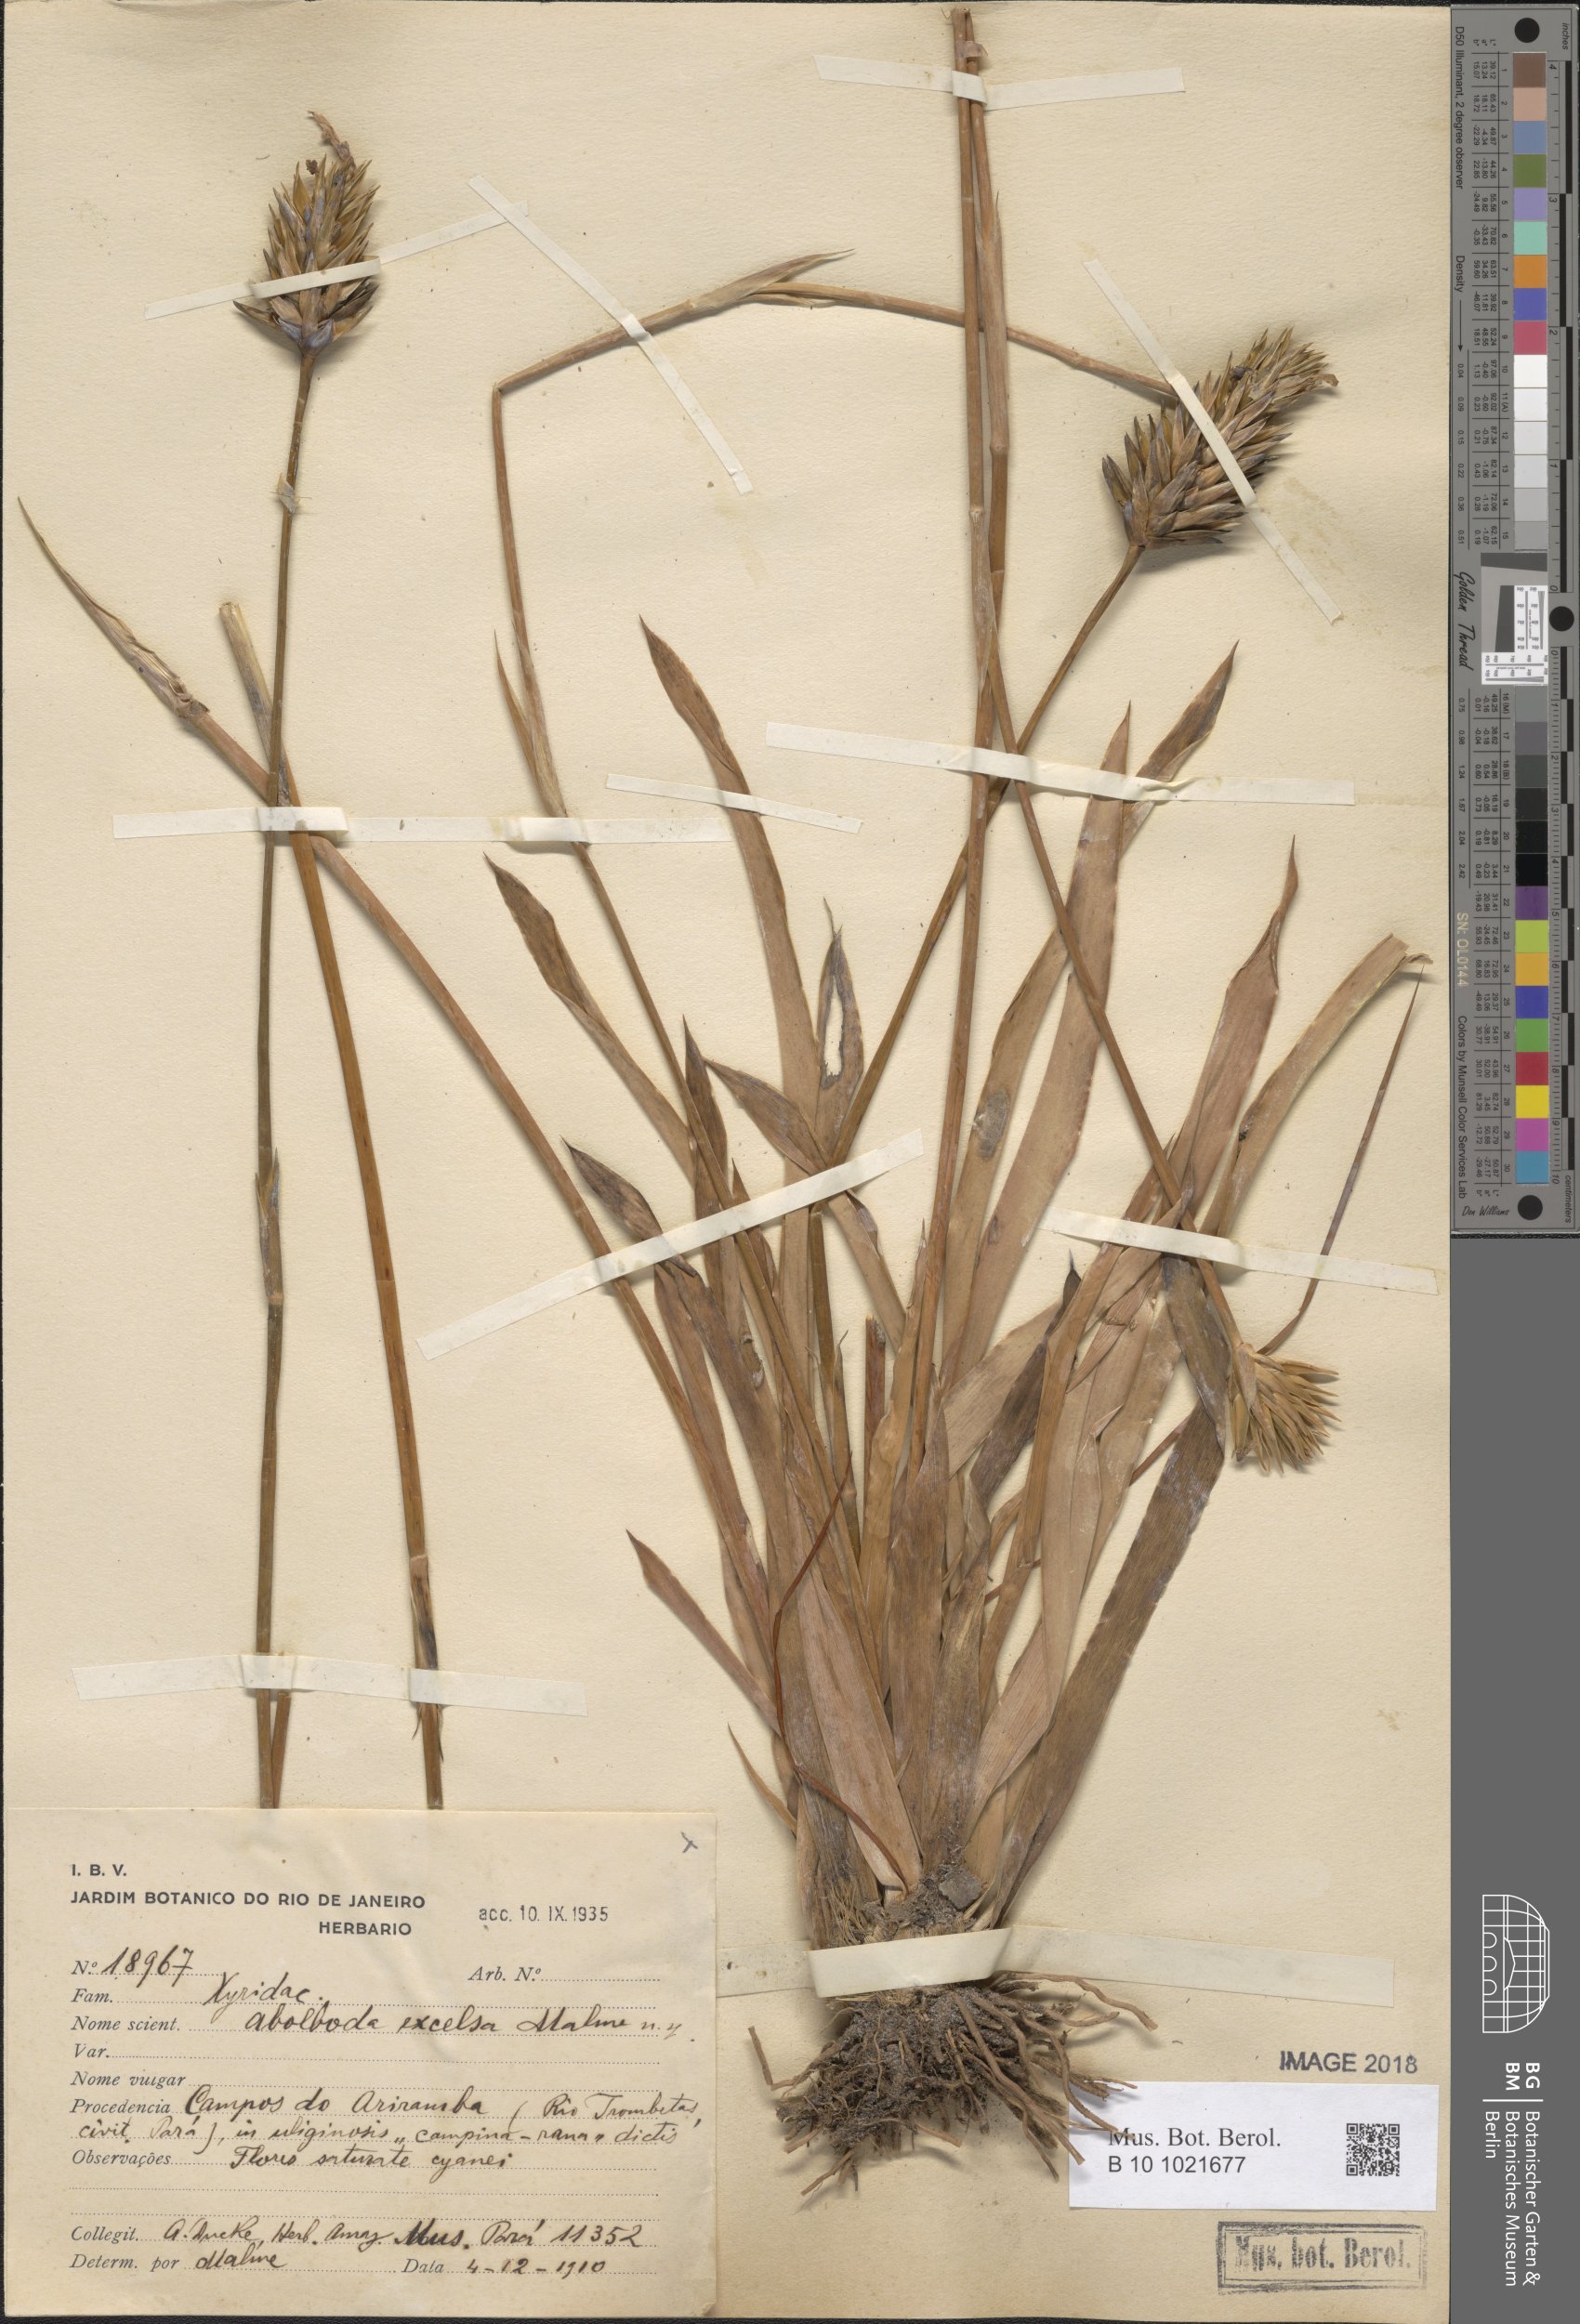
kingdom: Plantae
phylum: Tracheophyta
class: Liliopsida
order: Poales
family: Xyridaceae
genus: Abolboda
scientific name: Abolboda grandis
